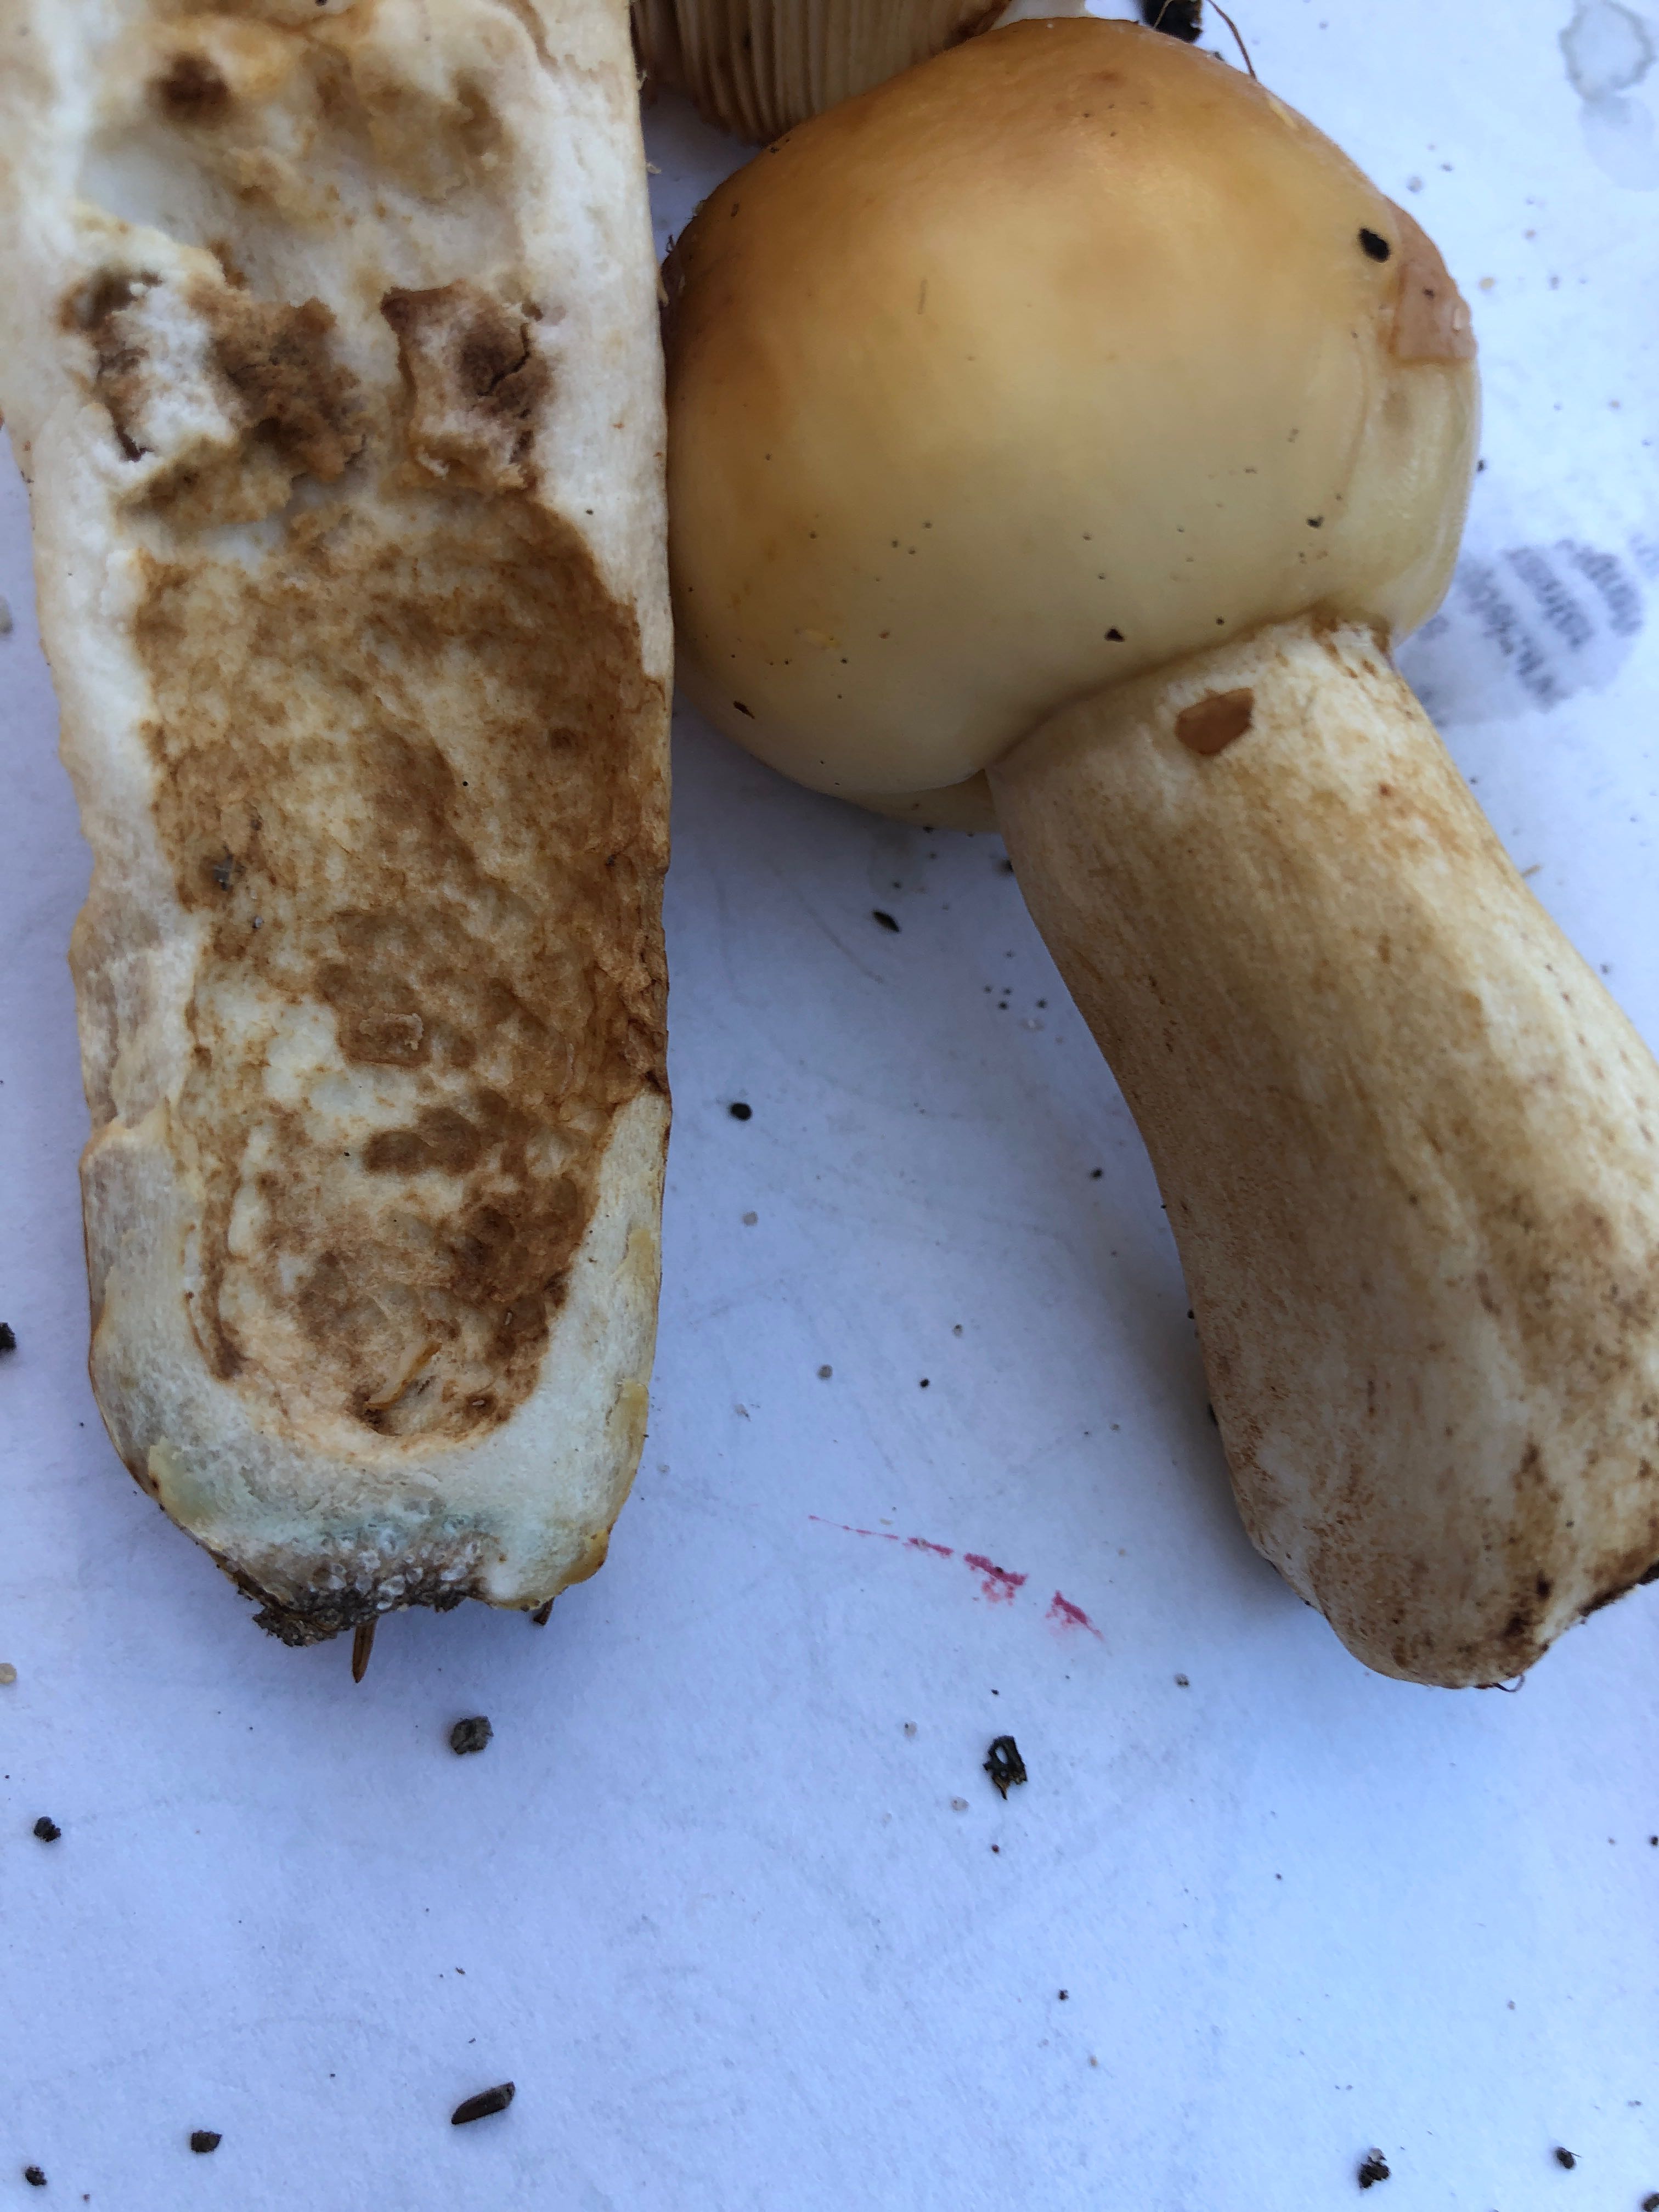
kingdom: Fungi
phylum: Basidiomycota
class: Agaricomycetes
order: Russulales
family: Russulaceae
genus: Russula
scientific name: Russula foetens
